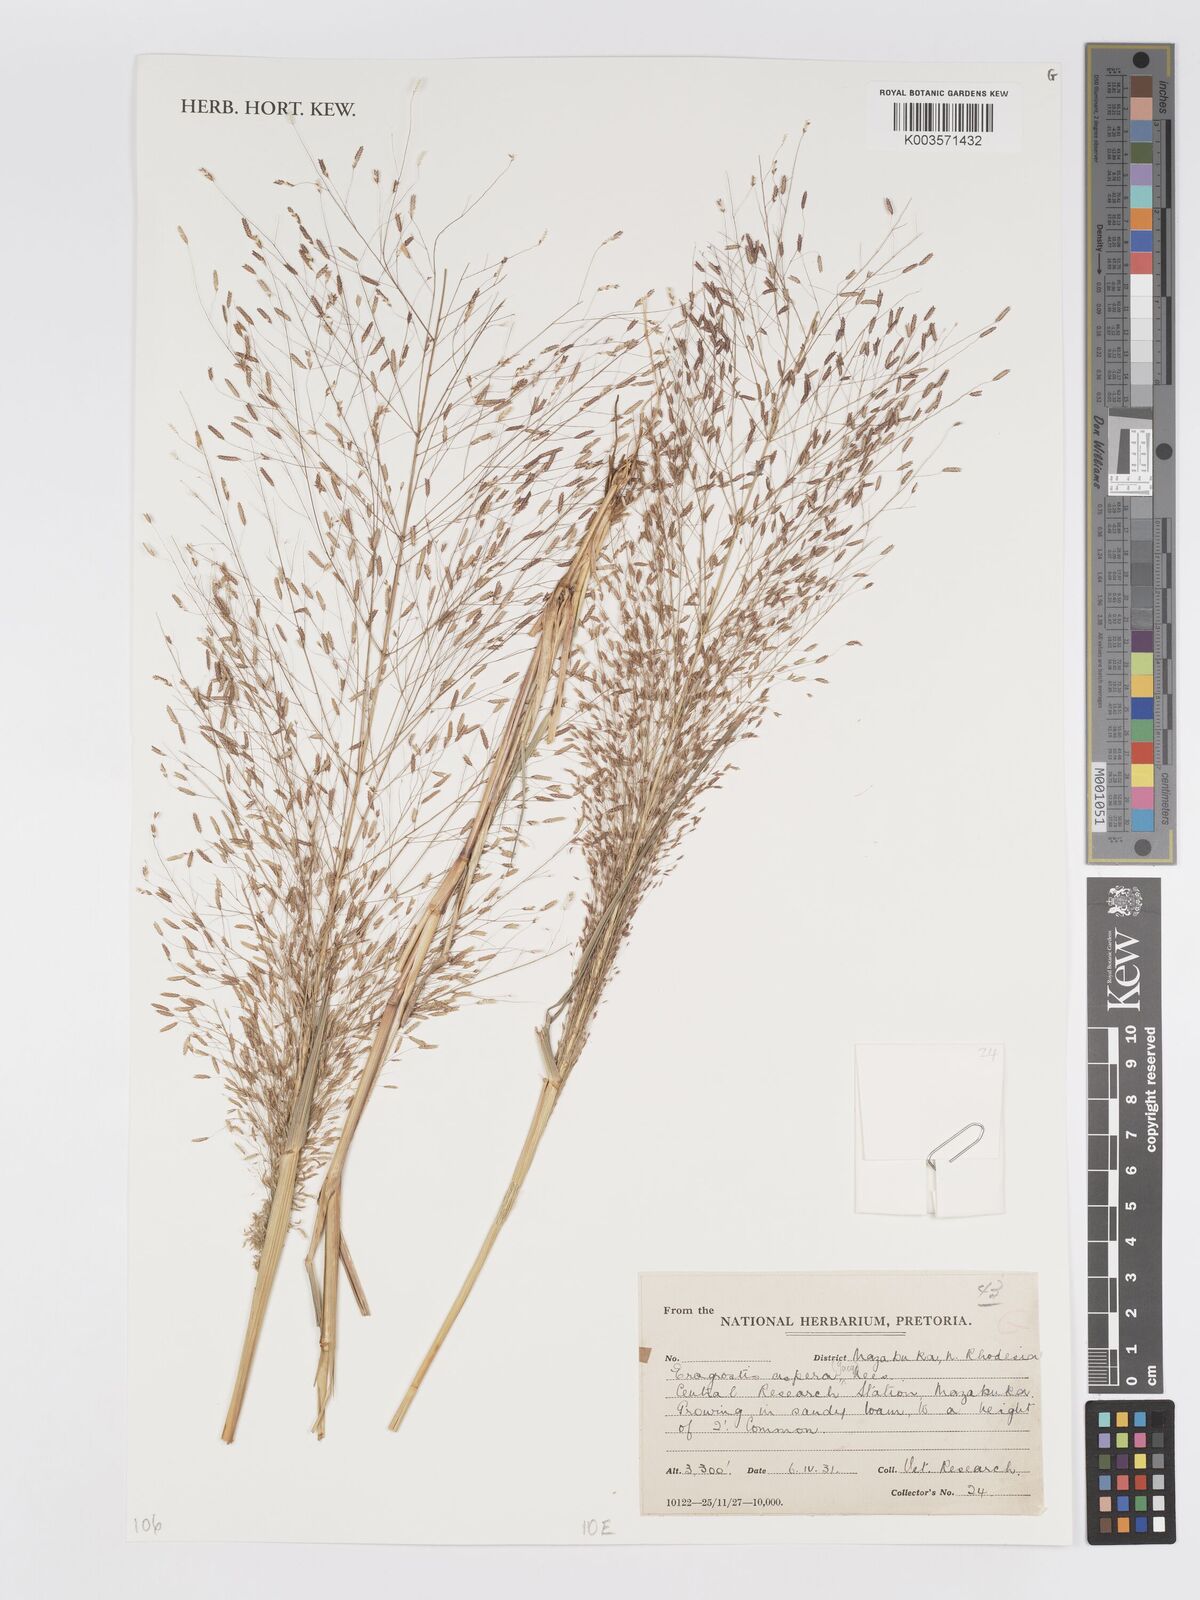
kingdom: Plantae
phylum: Tracheophyta
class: Liliopsida
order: Poales
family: Poaceae
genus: Eragrostis
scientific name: Eragrostis aspera
